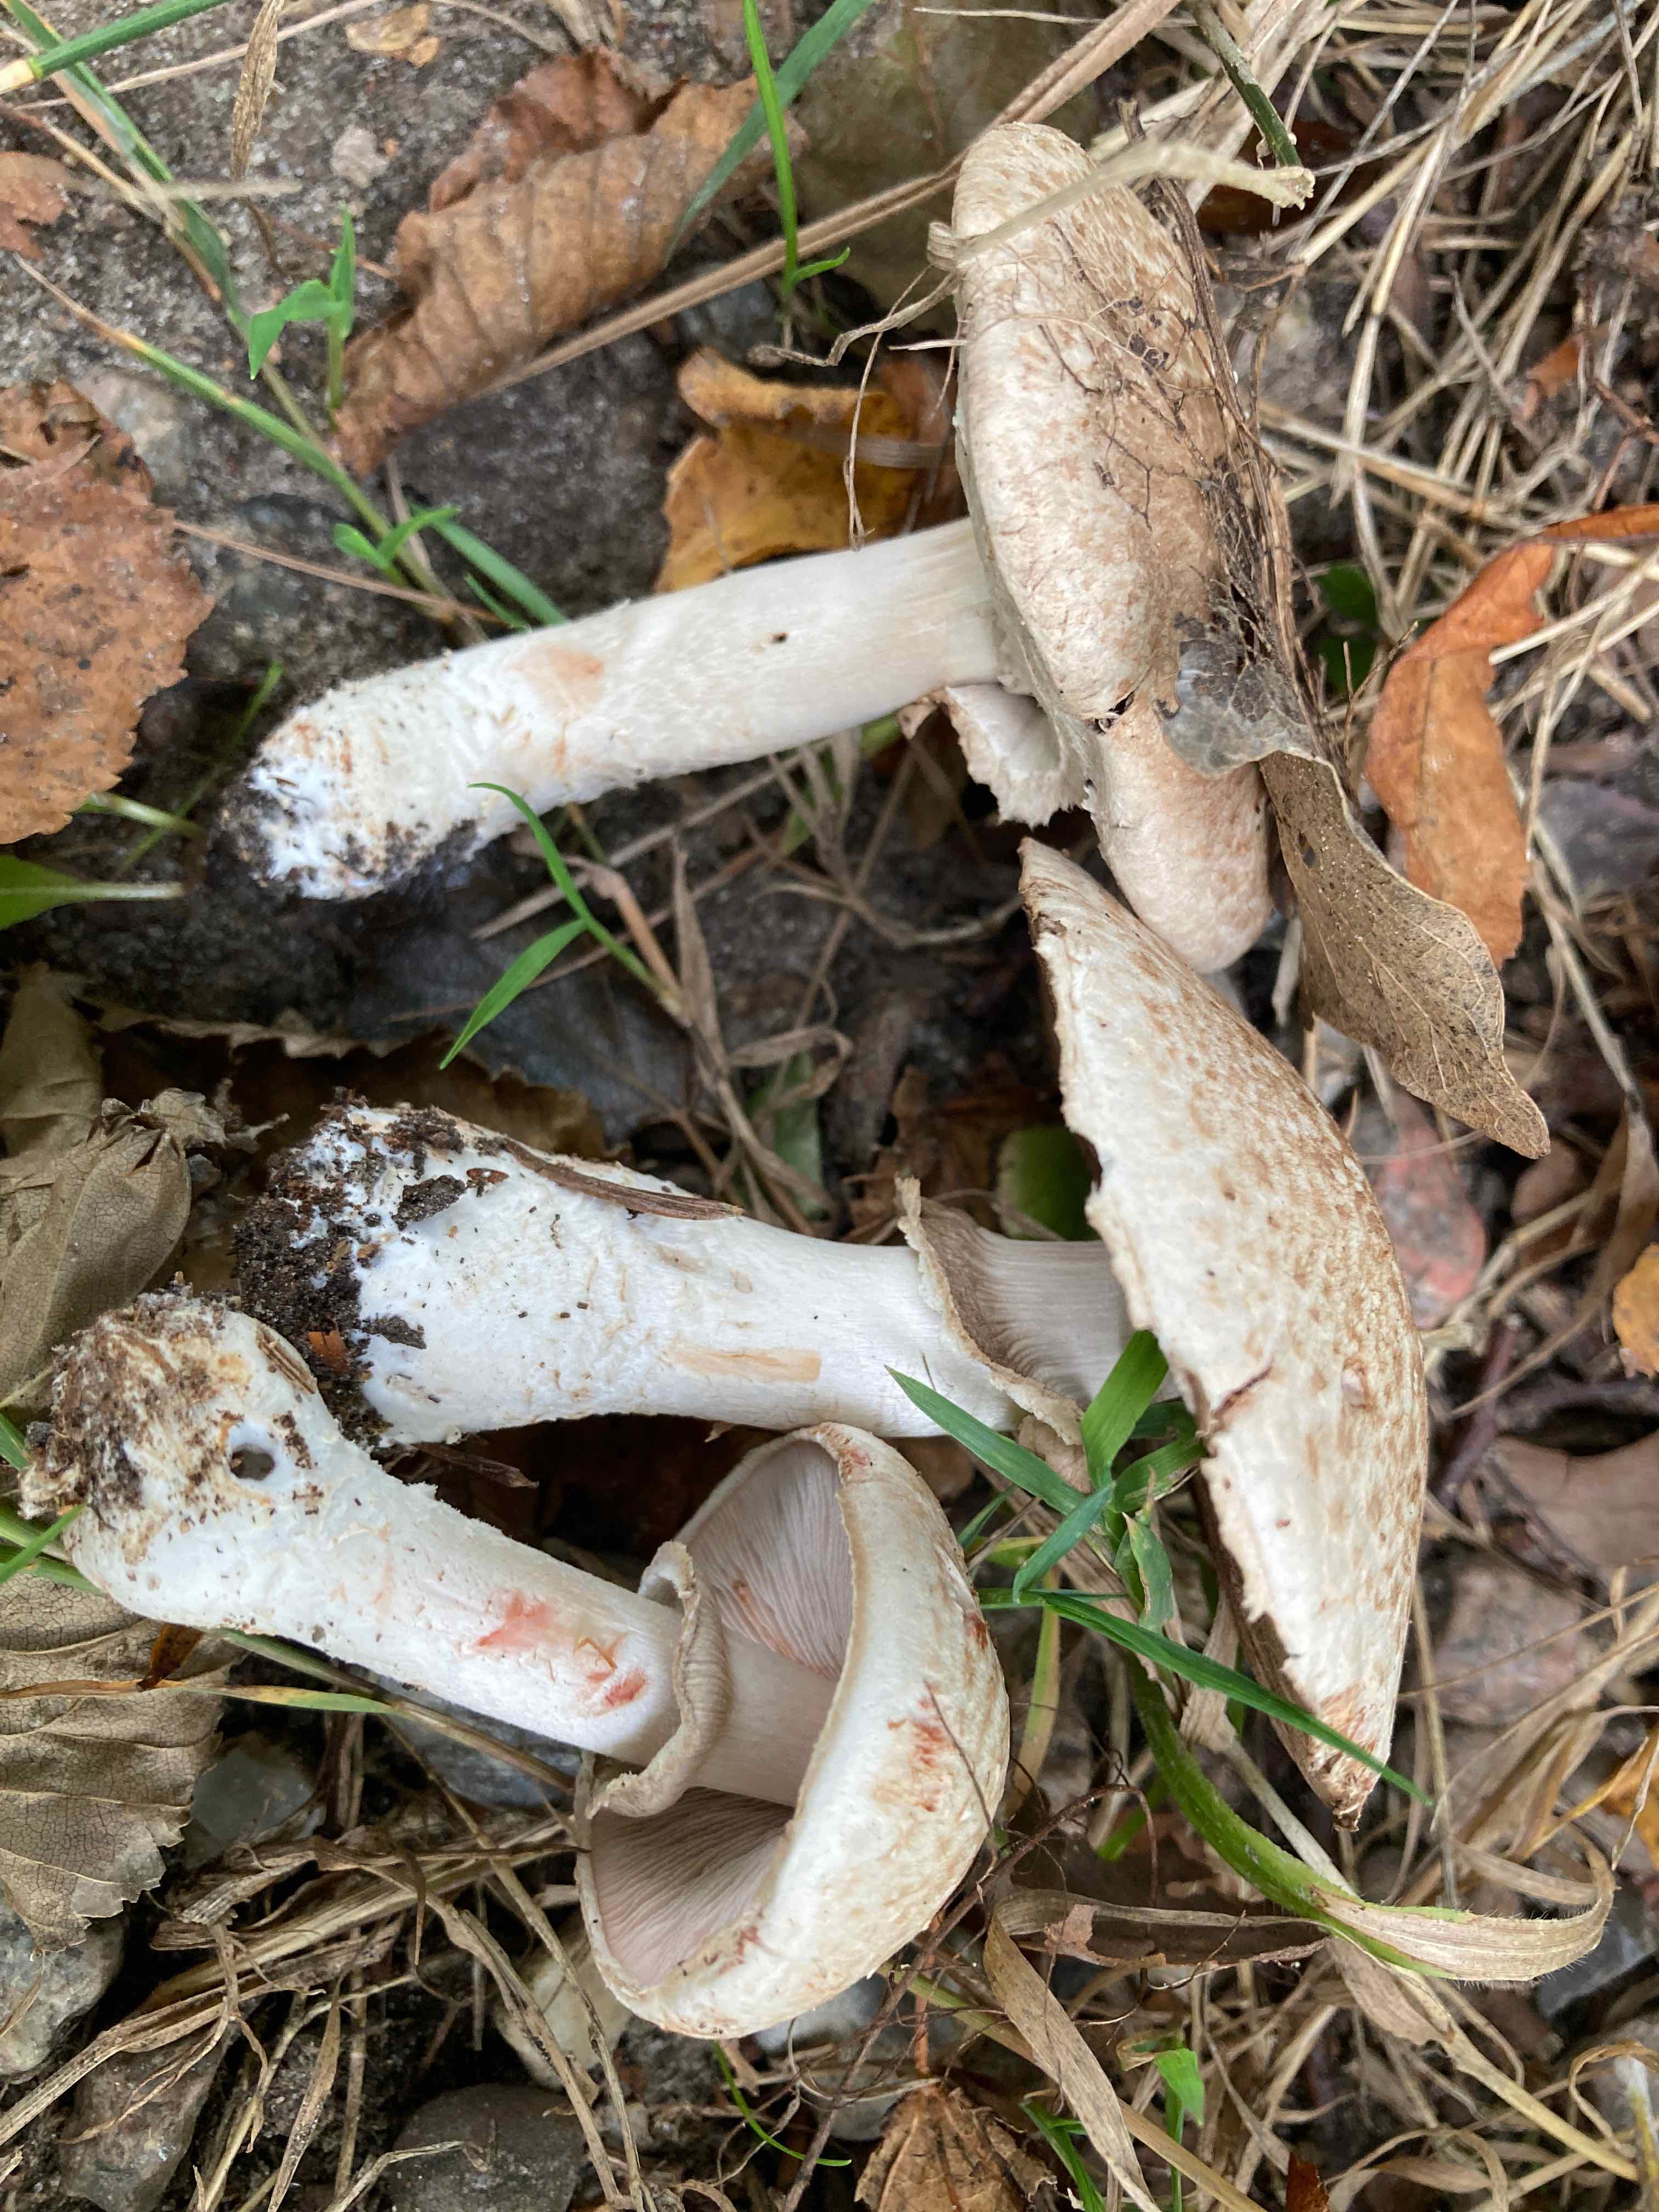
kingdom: Fungi
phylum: Basidiomycota
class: Agaricomycetes
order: Agaricales
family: Agaricaceae
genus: Agaricus
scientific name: Agaricus sylvaticus
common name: lille blod-champignon
